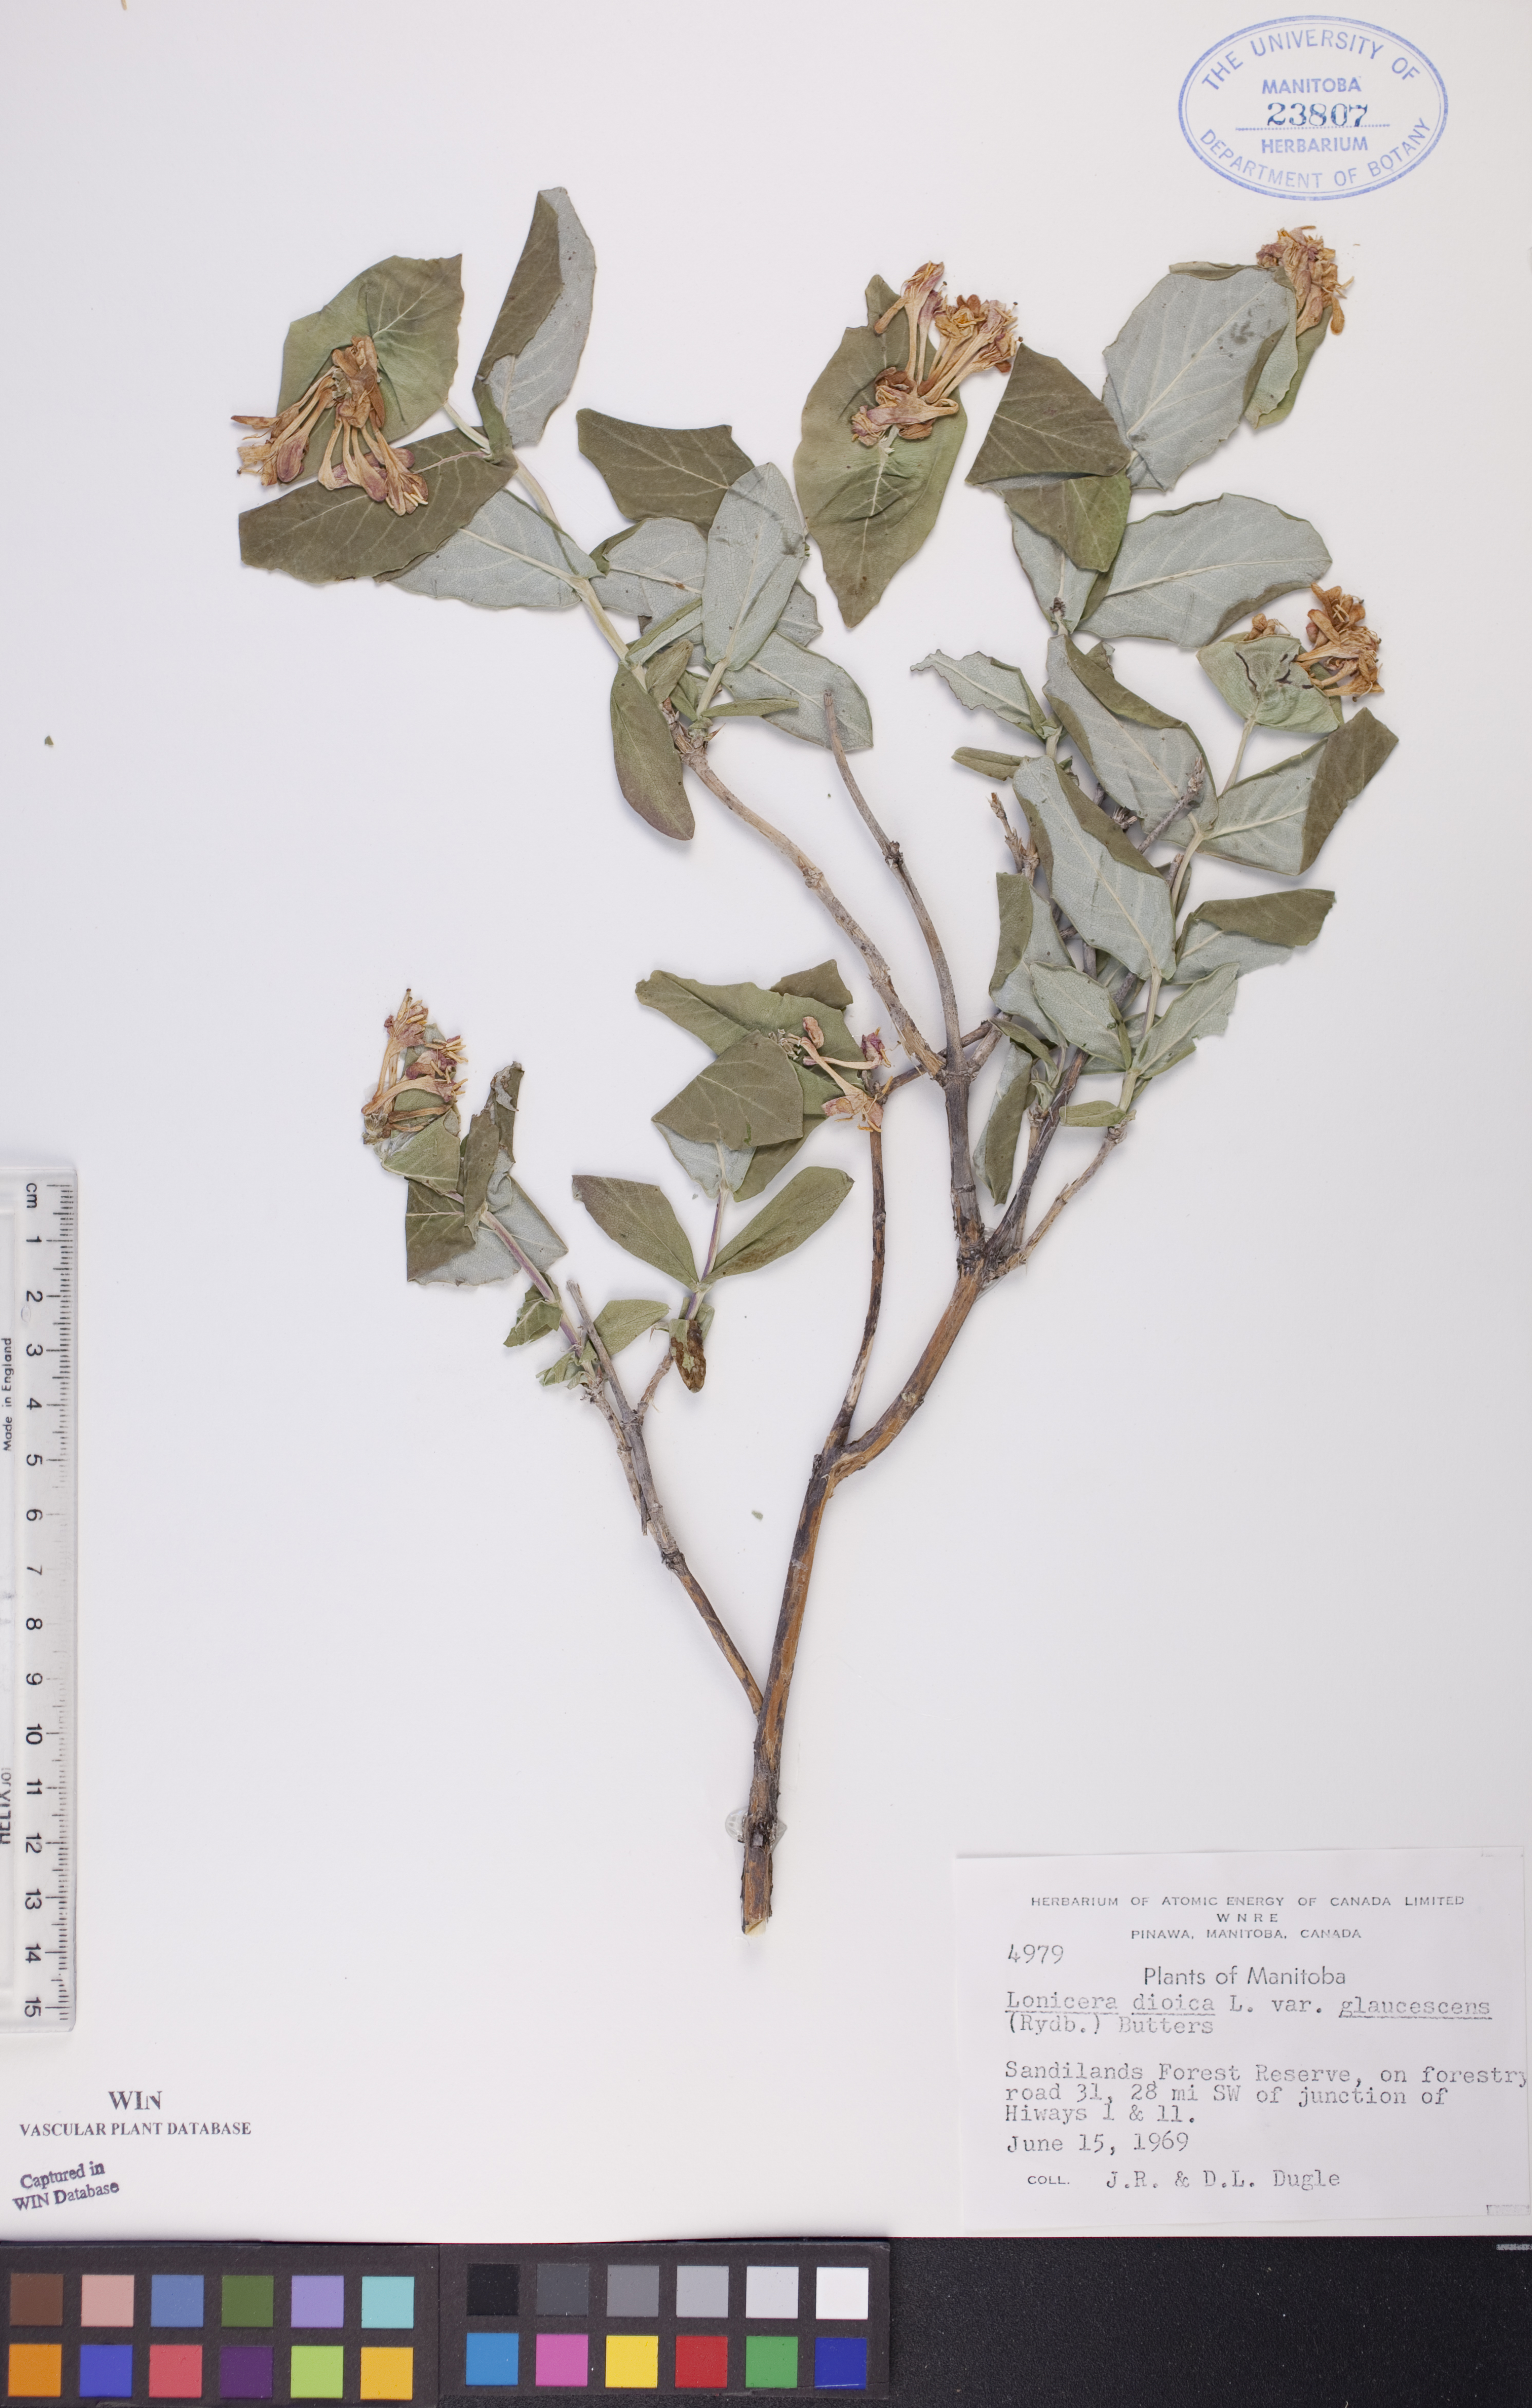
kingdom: Plantae
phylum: Tracheophyta
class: Magnoliopsida
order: Dipsacales
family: Caprifoliaceae
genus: Lonicera
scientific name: Lonicera dioica
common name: Limber honeysuckle
